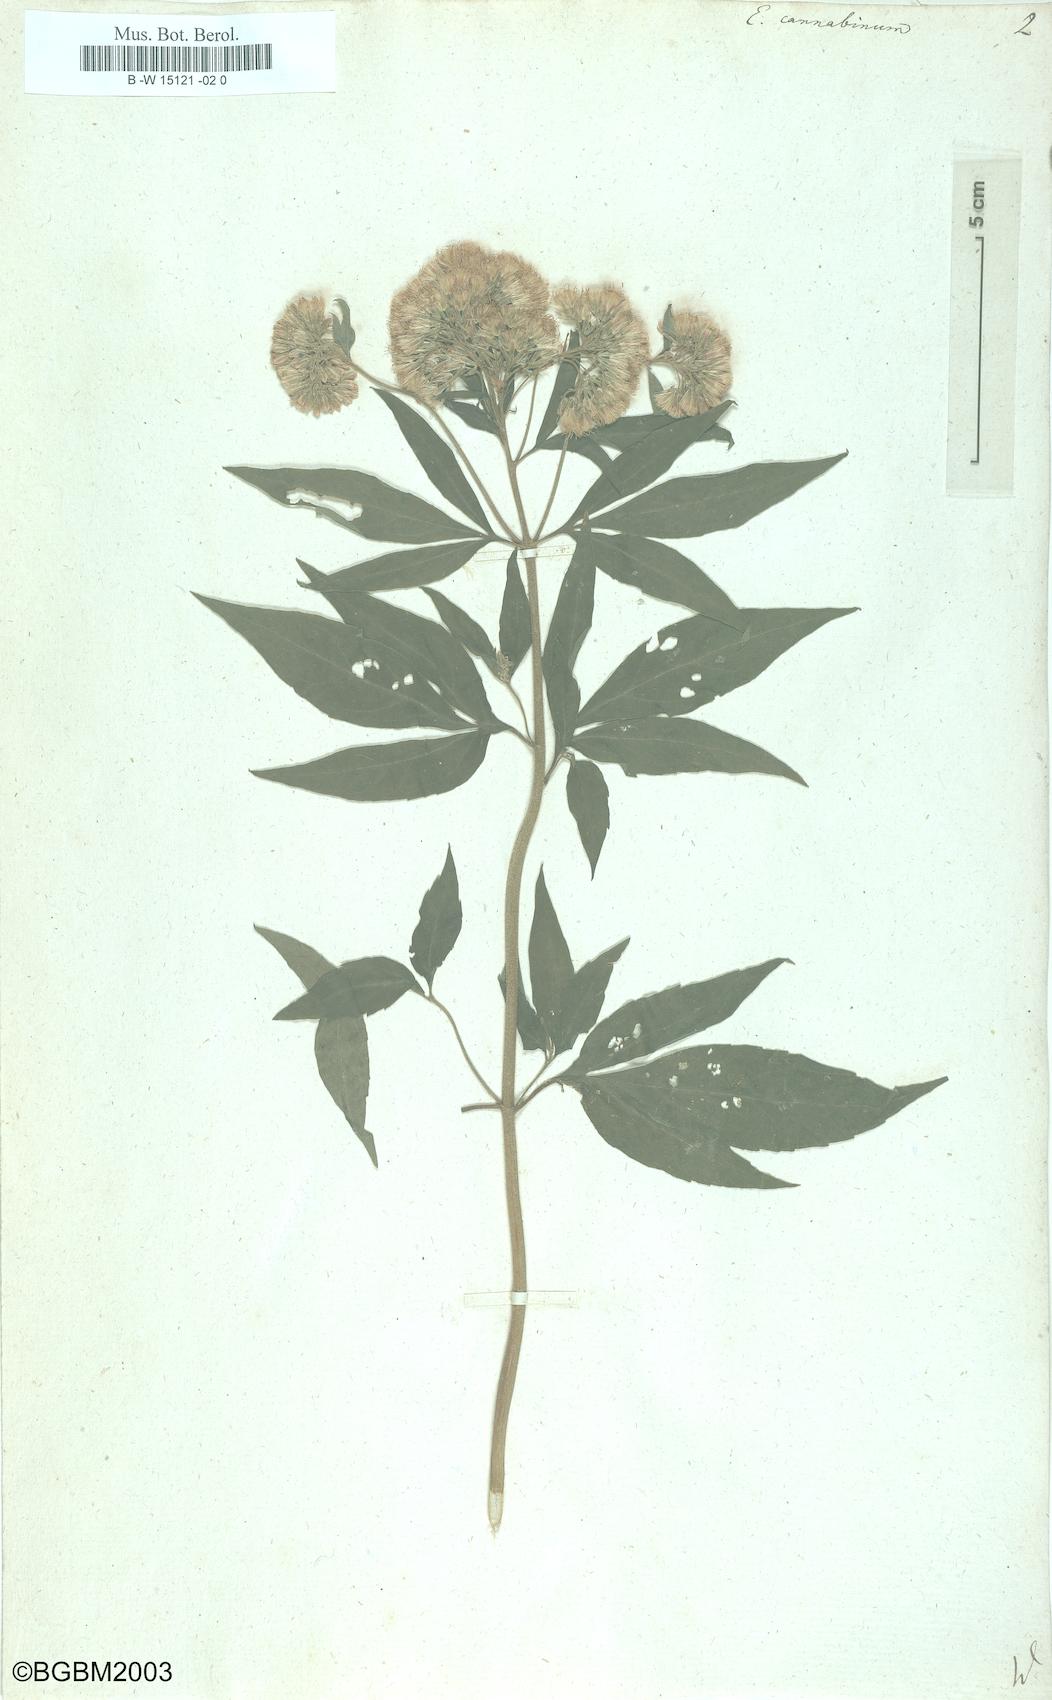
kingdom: Plantae
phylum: Tracheophyta
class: Magnoliopsida
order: Asterales
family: Asteraceae
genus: Eupatorium
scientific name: Eupatorium cannabinum
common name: Hemp-agrimony
